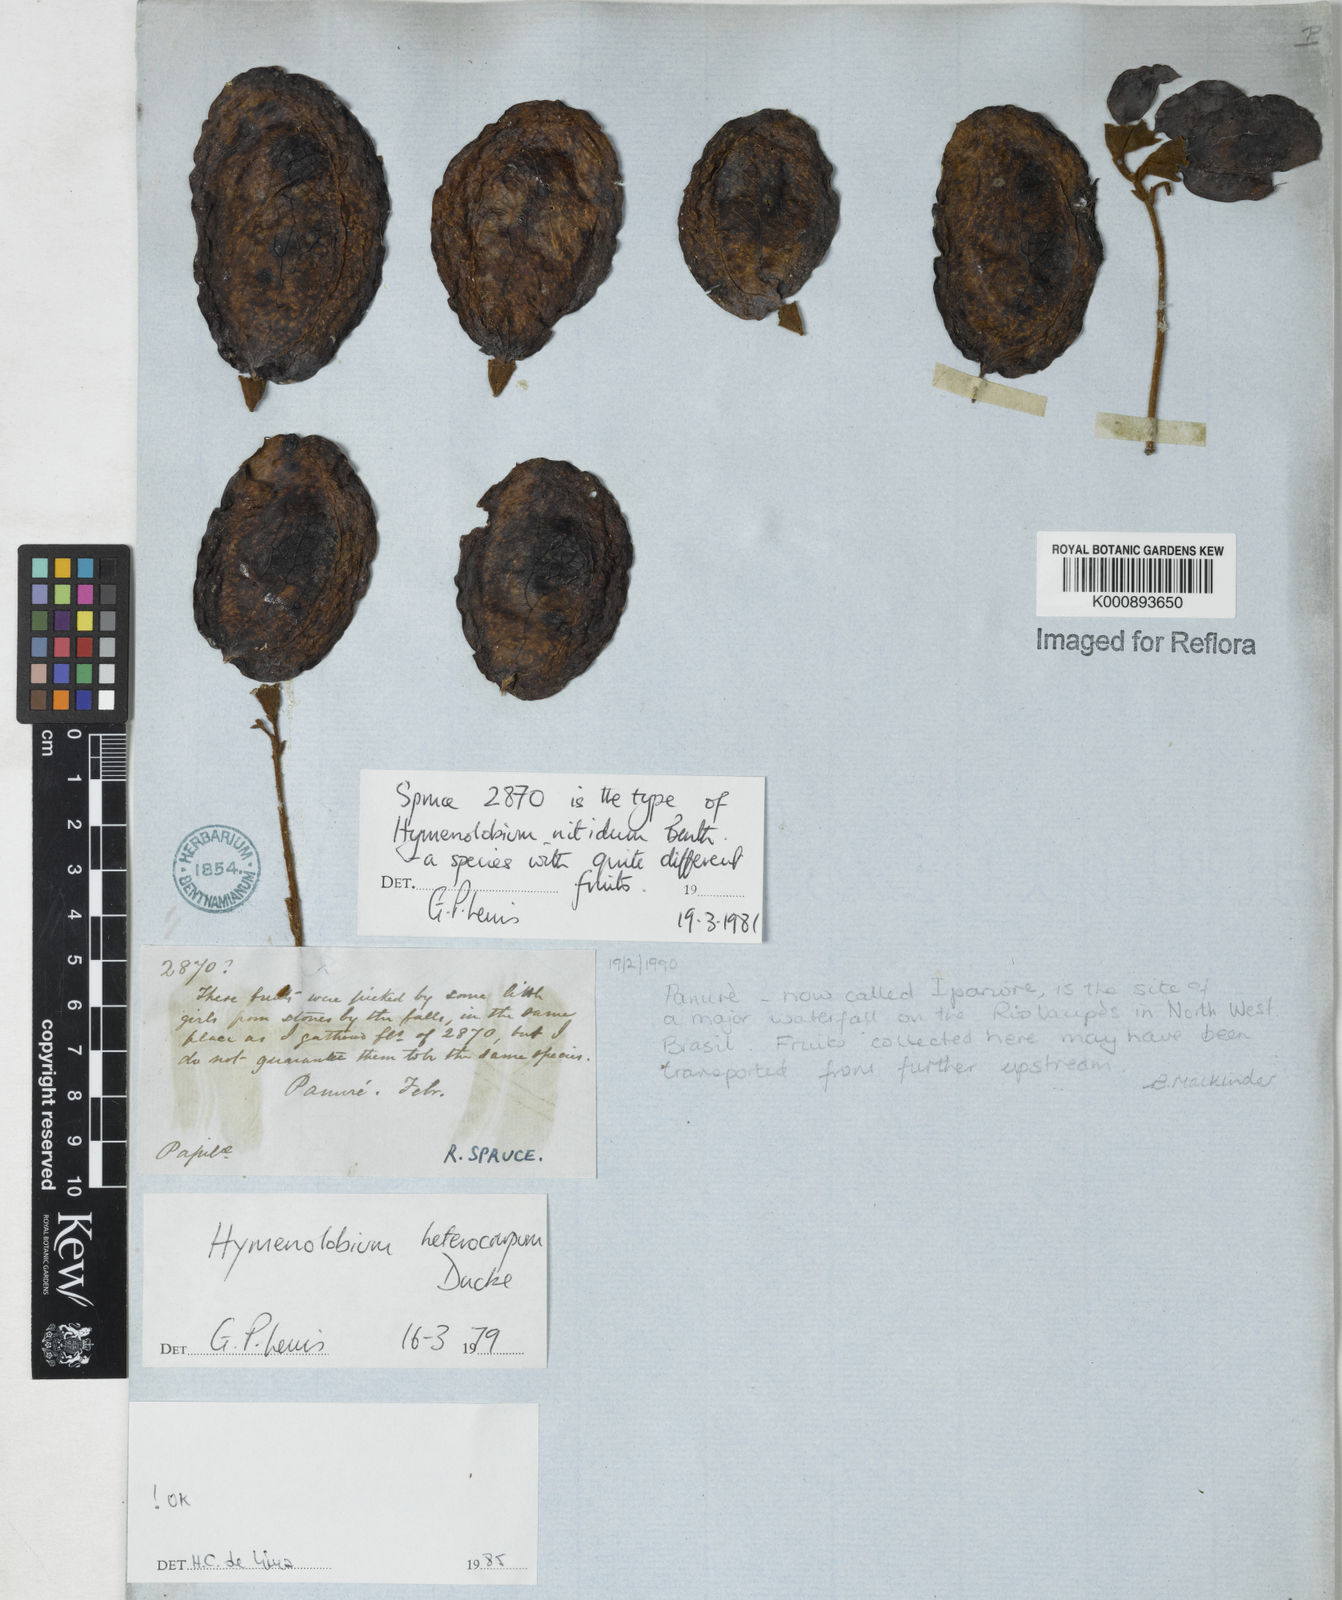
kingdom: Plantae
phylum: Tracheophyta
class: Magnoliopsida
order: Fabales
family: Fabaceae
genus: Hymenolobium
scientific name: Hymenolobium heterocarpum
